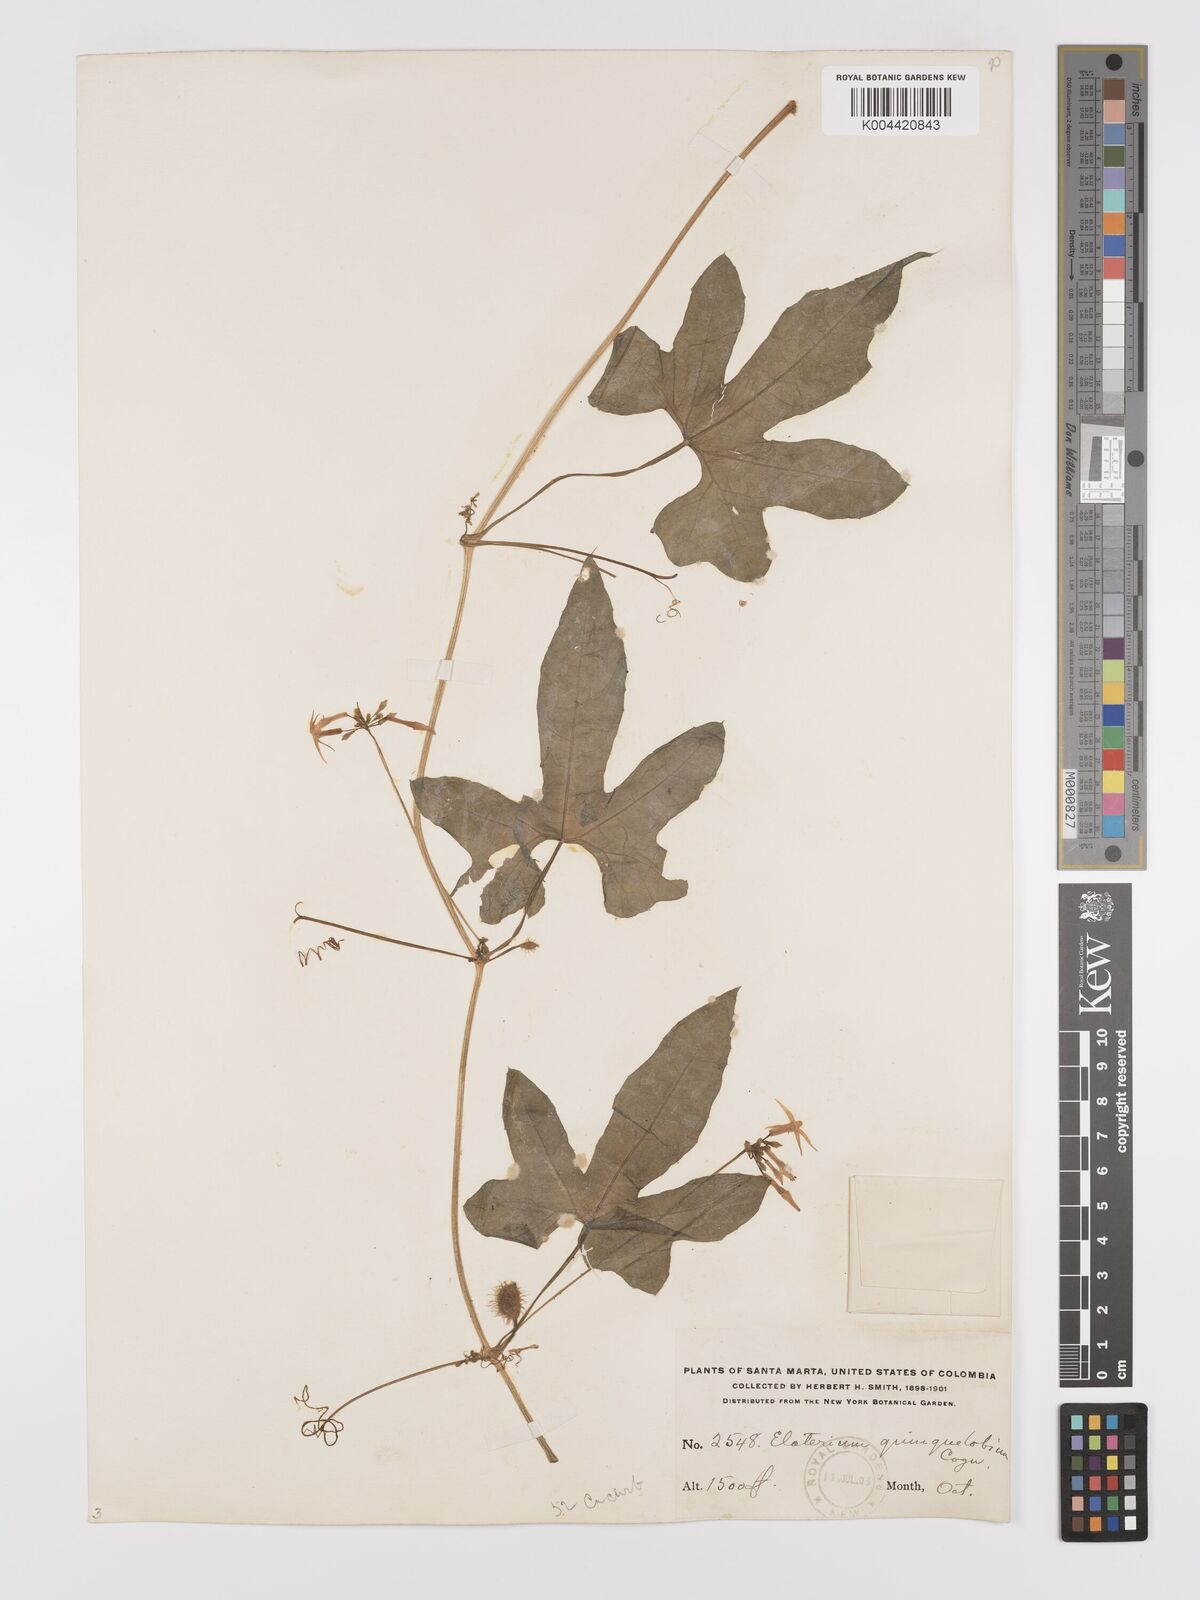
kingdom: Plantae
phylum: Tracheophyta
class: Magnoliopsida
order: Cucurbitales
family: Cucurbitaceae
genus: Cyclanthera
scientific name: Cyclanthera carthagenensis
